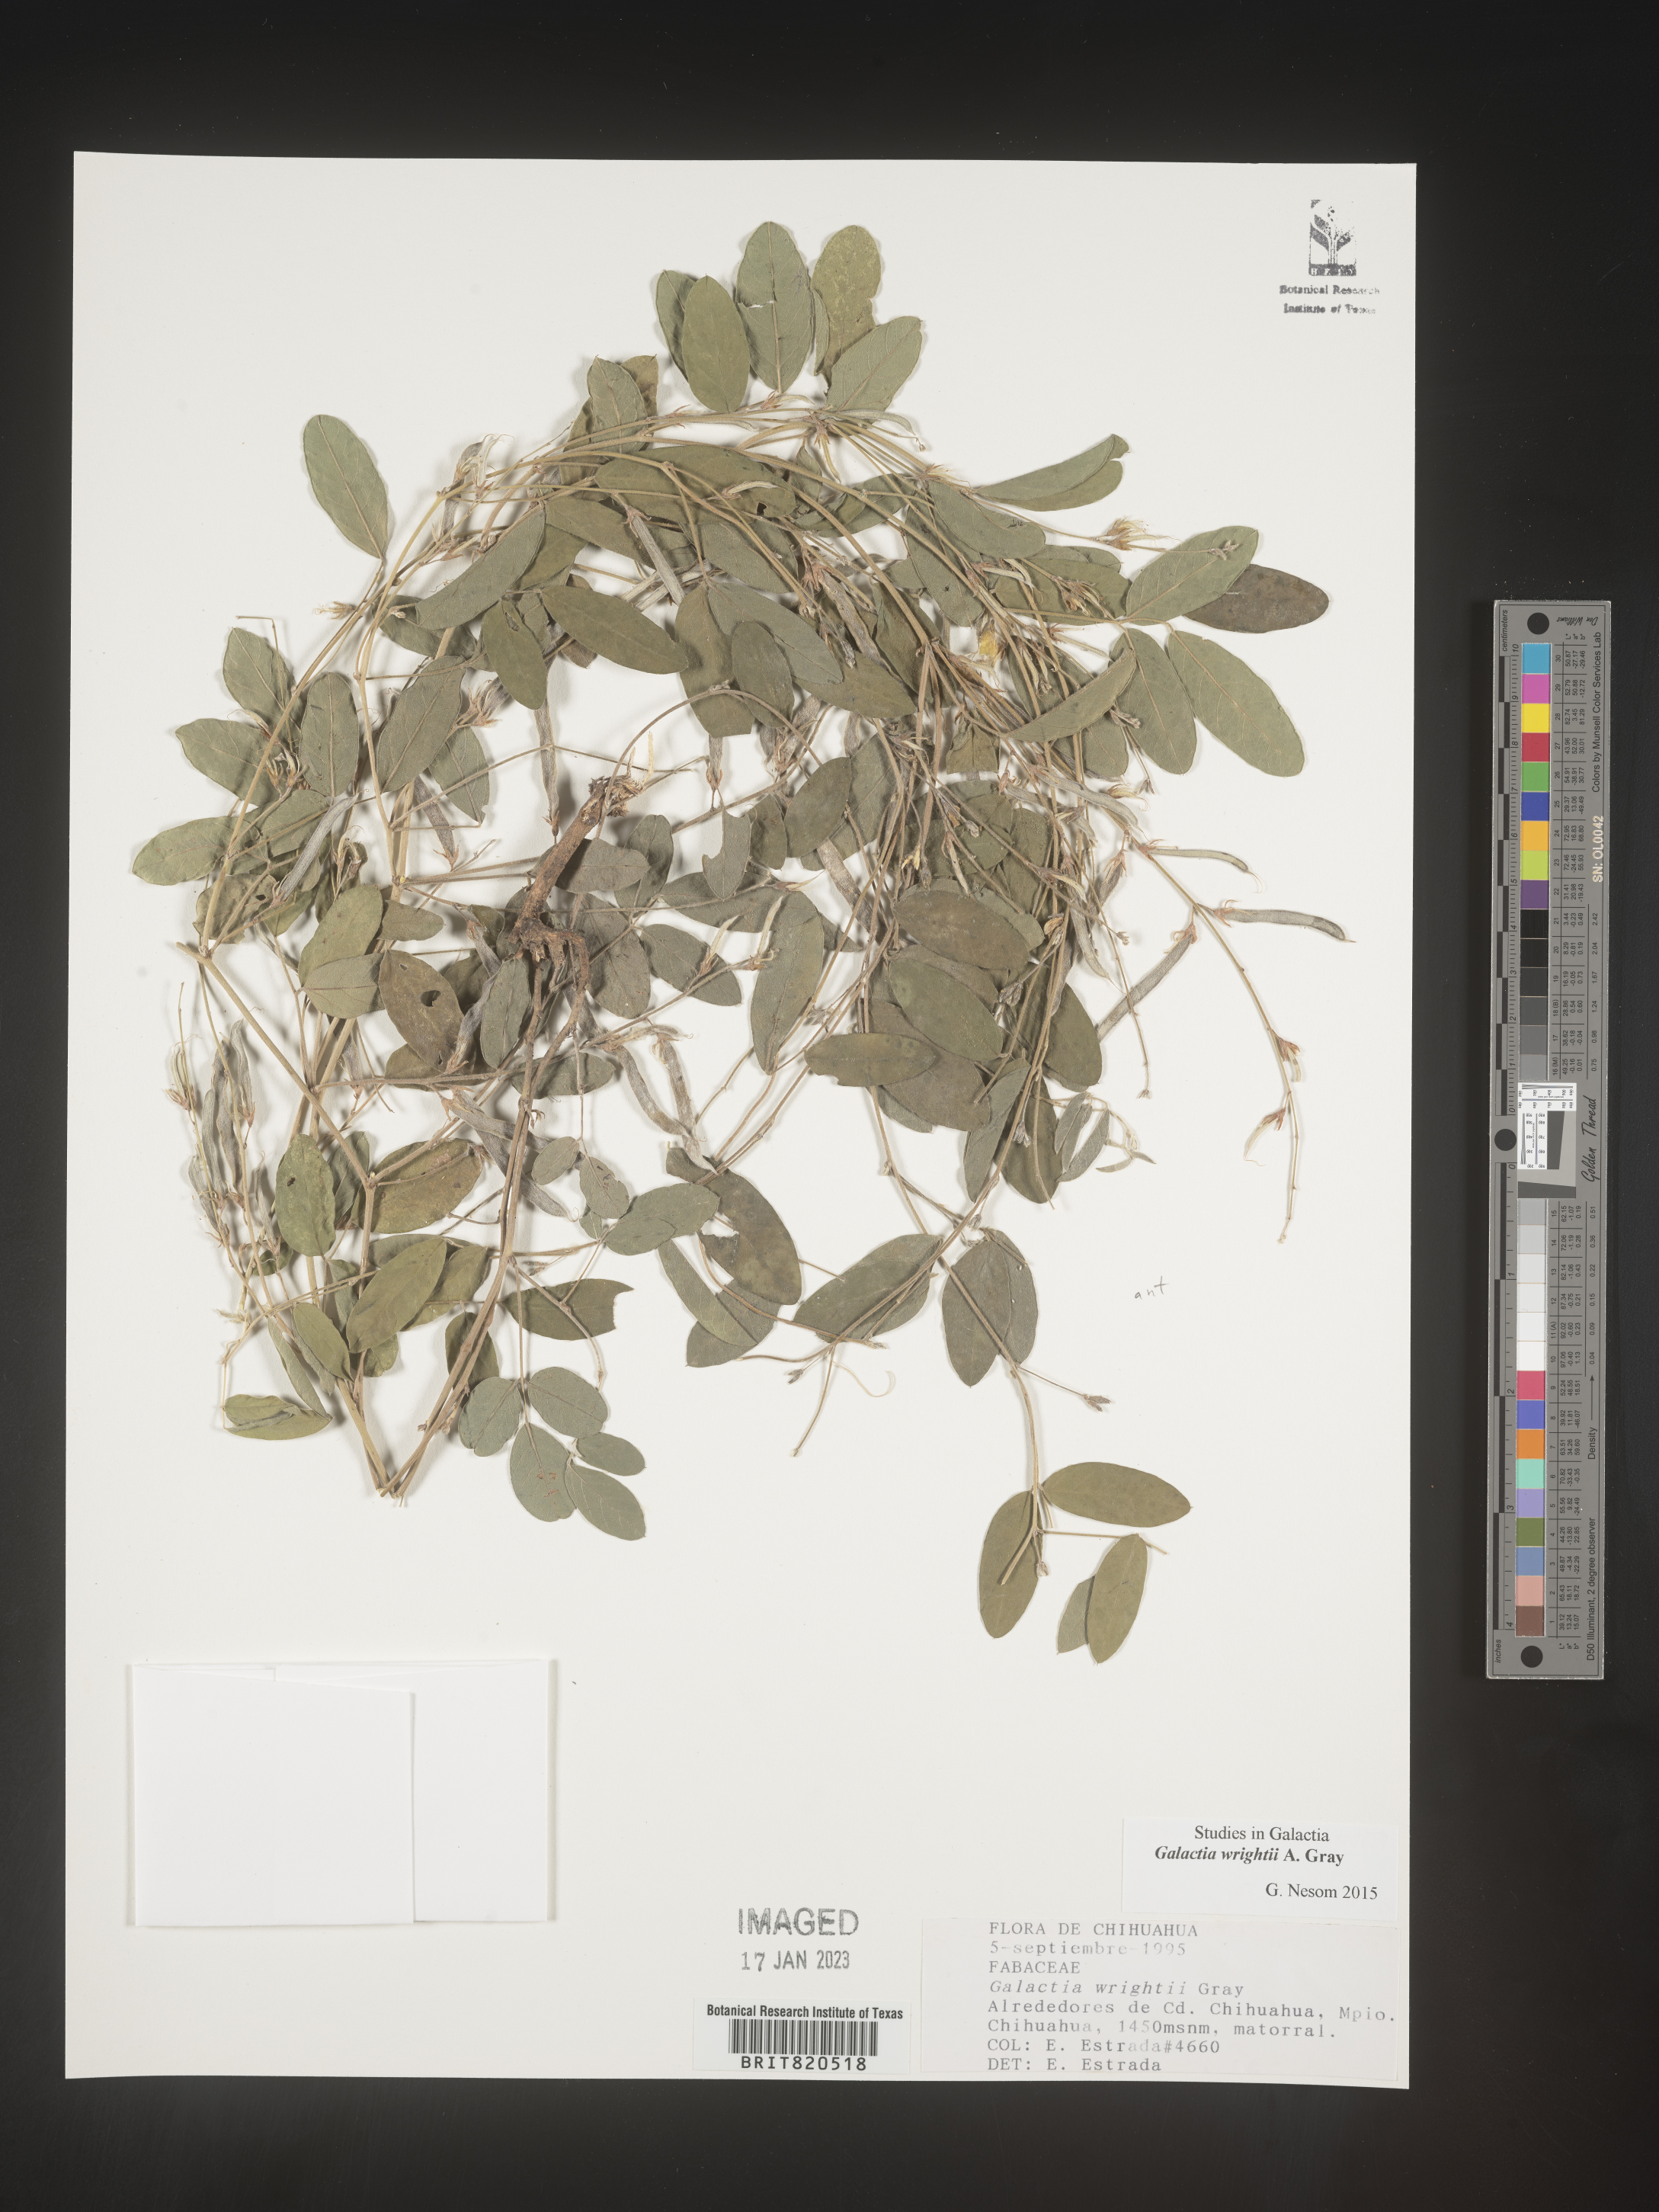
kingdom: Plantae
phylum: Tracheophyta
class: Magnoliopsida
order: Fabales
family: Fabaceae
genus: Galactia
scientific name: Galactia wrightii
